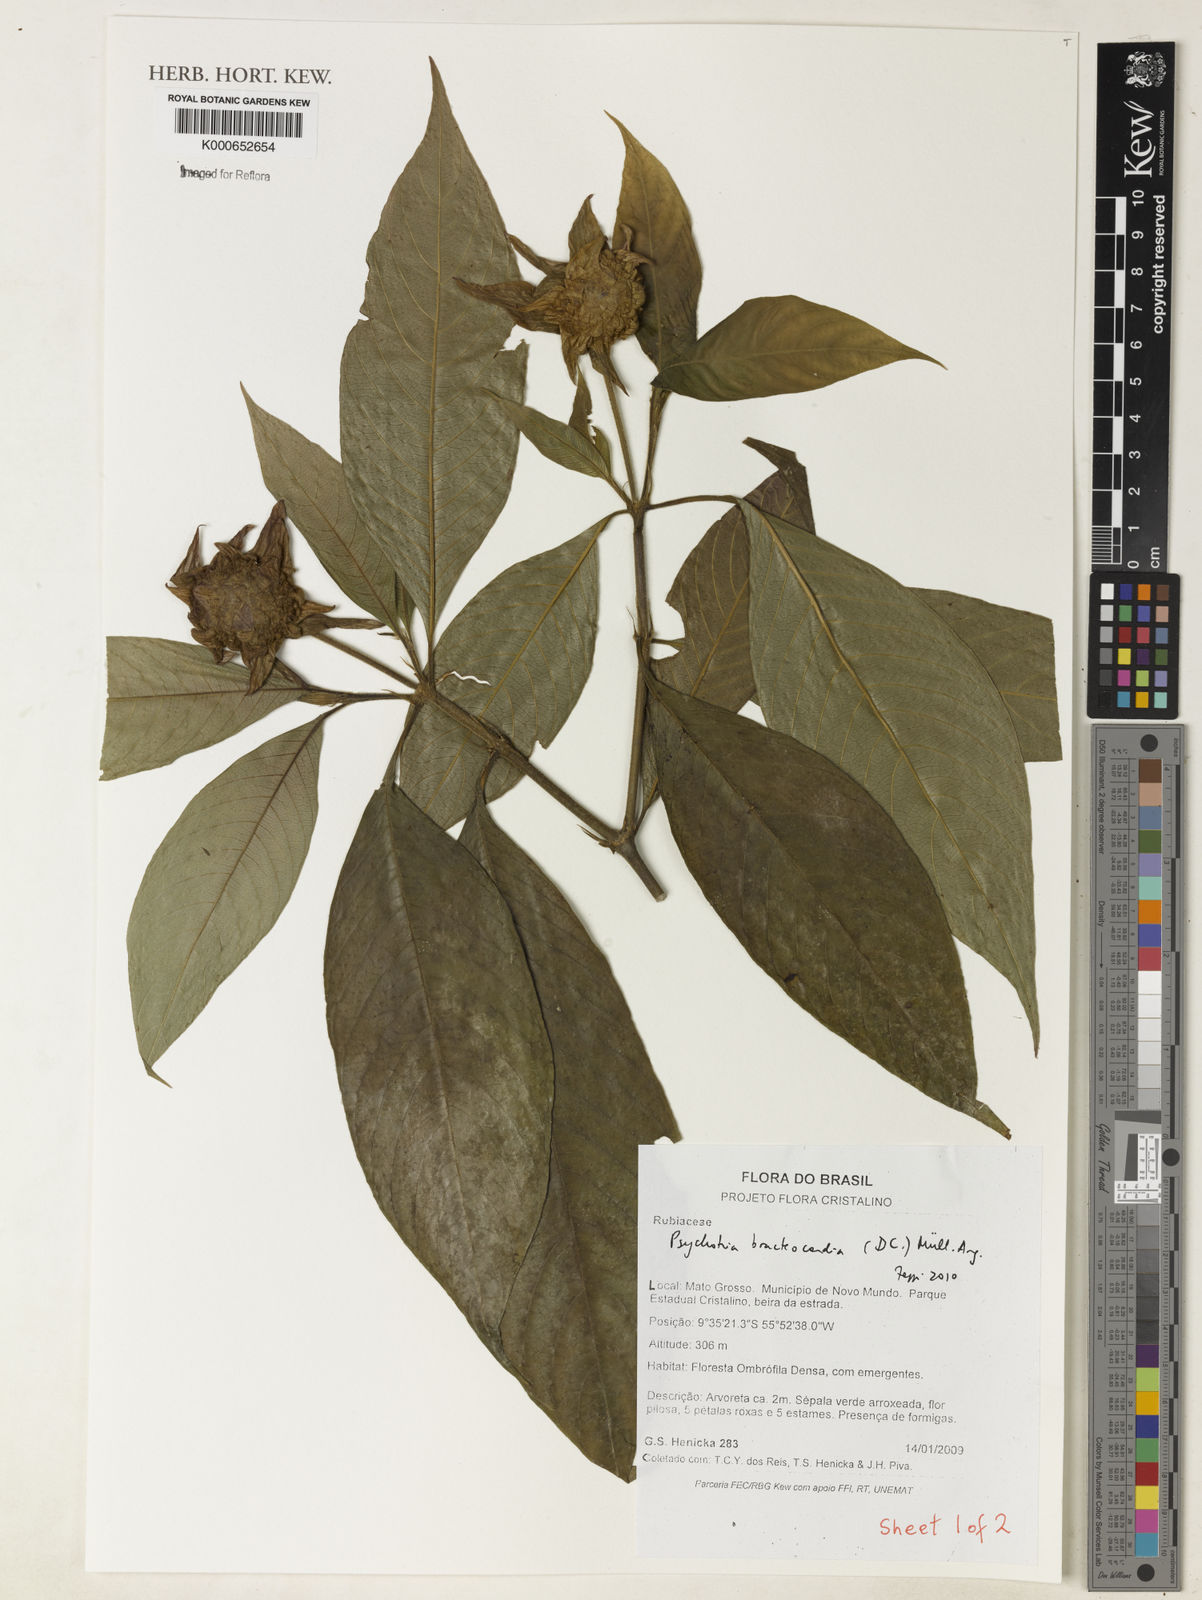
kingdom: Plantae
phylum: Tracheophyta
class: Magnoliopsida
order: Gentianales
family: Rubiaceae
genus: Psychotria
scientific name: Psychotria
